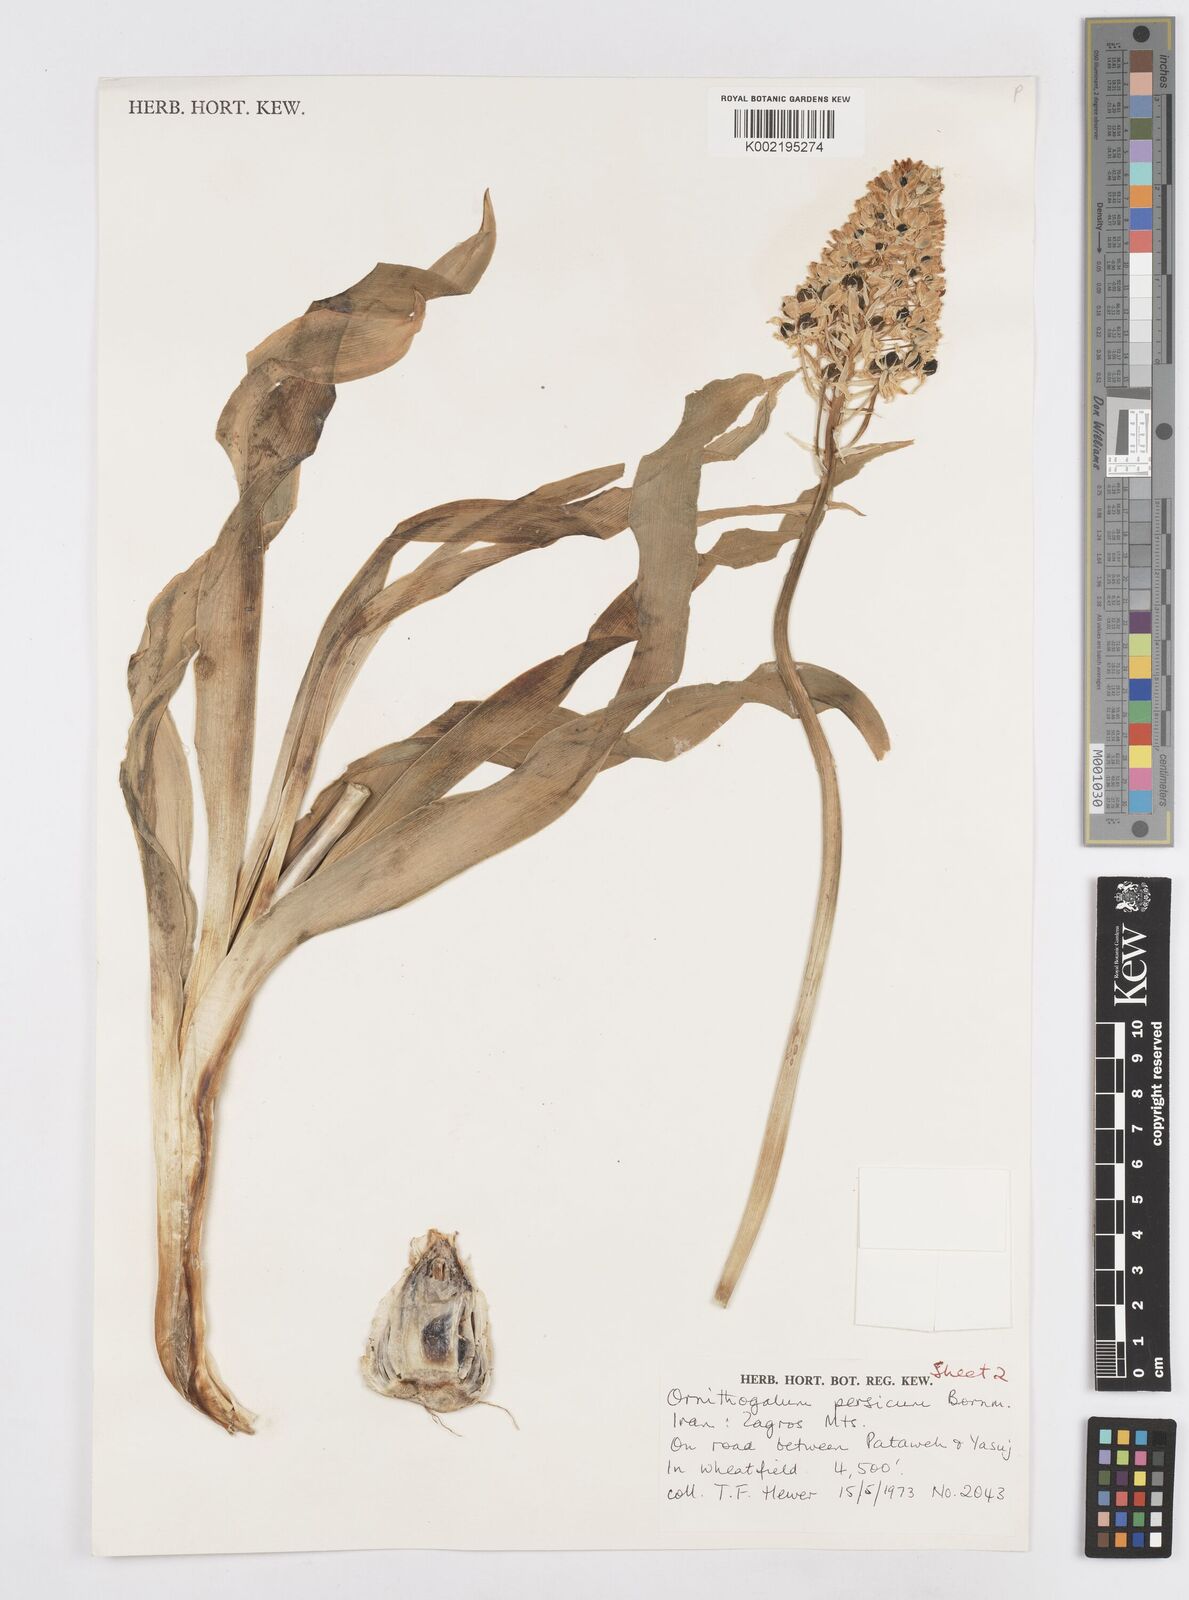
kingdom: Plantae
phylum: Tracheophyta
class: Liliopsida
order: Asparagales
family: Asparagaceae
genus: Ornithogalum
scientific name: Ornithogalum persicum
